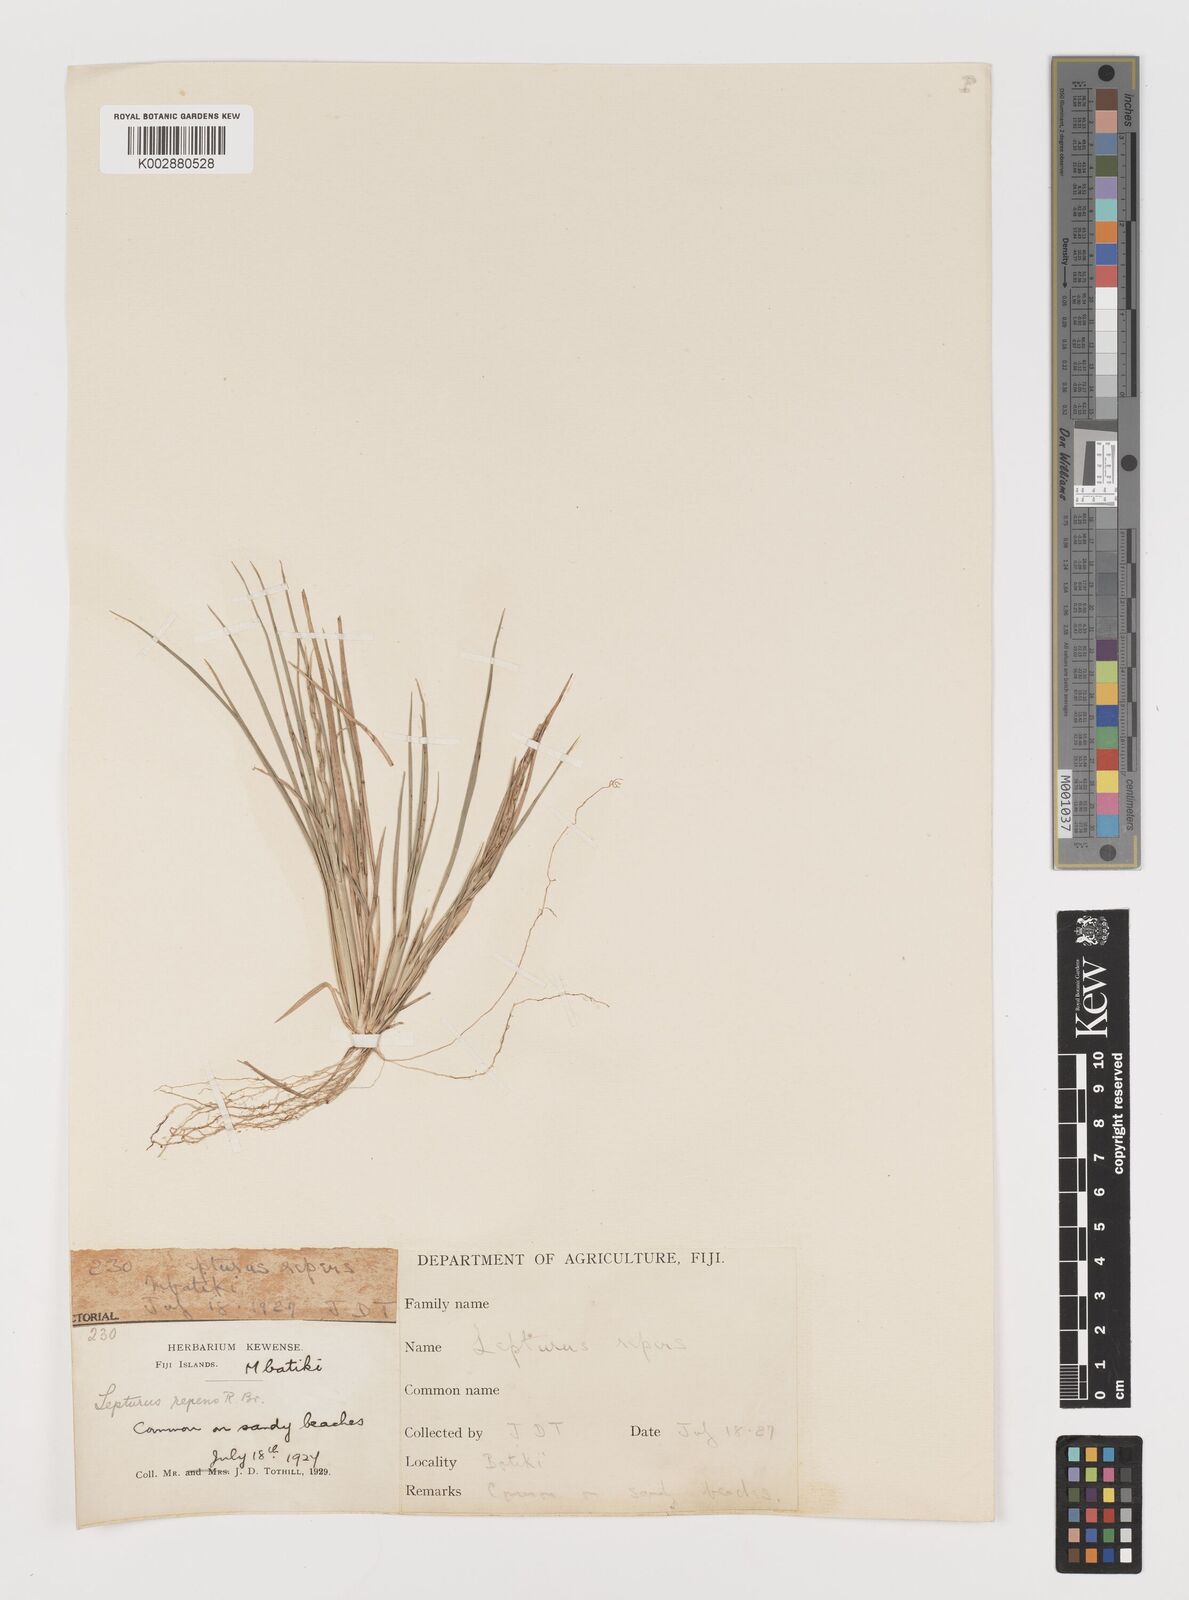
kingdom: Plantae
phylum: Tracheophyta
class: Liliopsida
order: Poales
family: Poaceae
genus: Lepturus
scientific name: Lepturus repens
